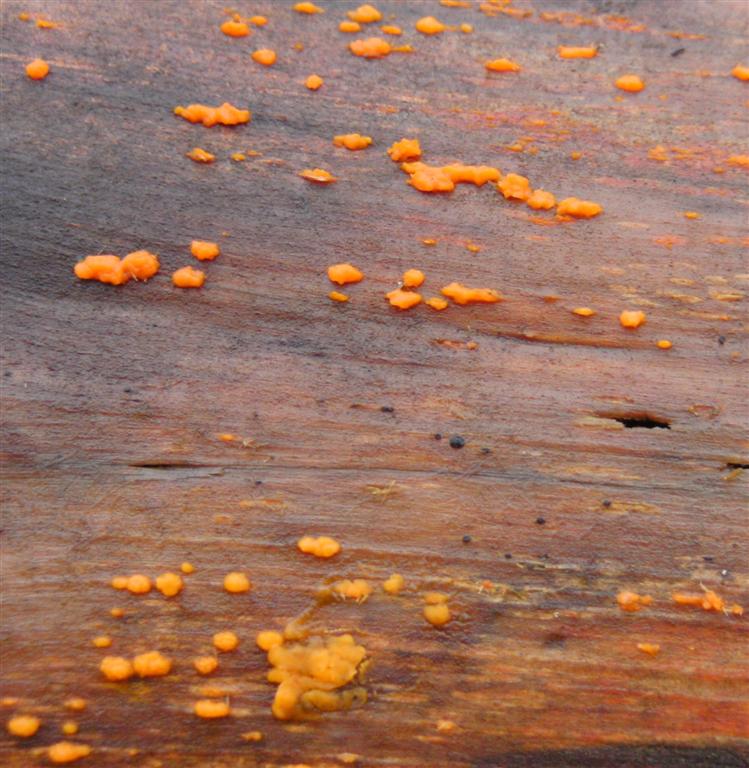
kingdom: Fungi
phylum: Basidiomycota
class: Dacrymycetes
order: Dacrymycetales
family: Dacrymycetaceae
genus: Dacrymyces
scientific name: Dacrymyces stillatus
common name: almindelig tåresvamp
